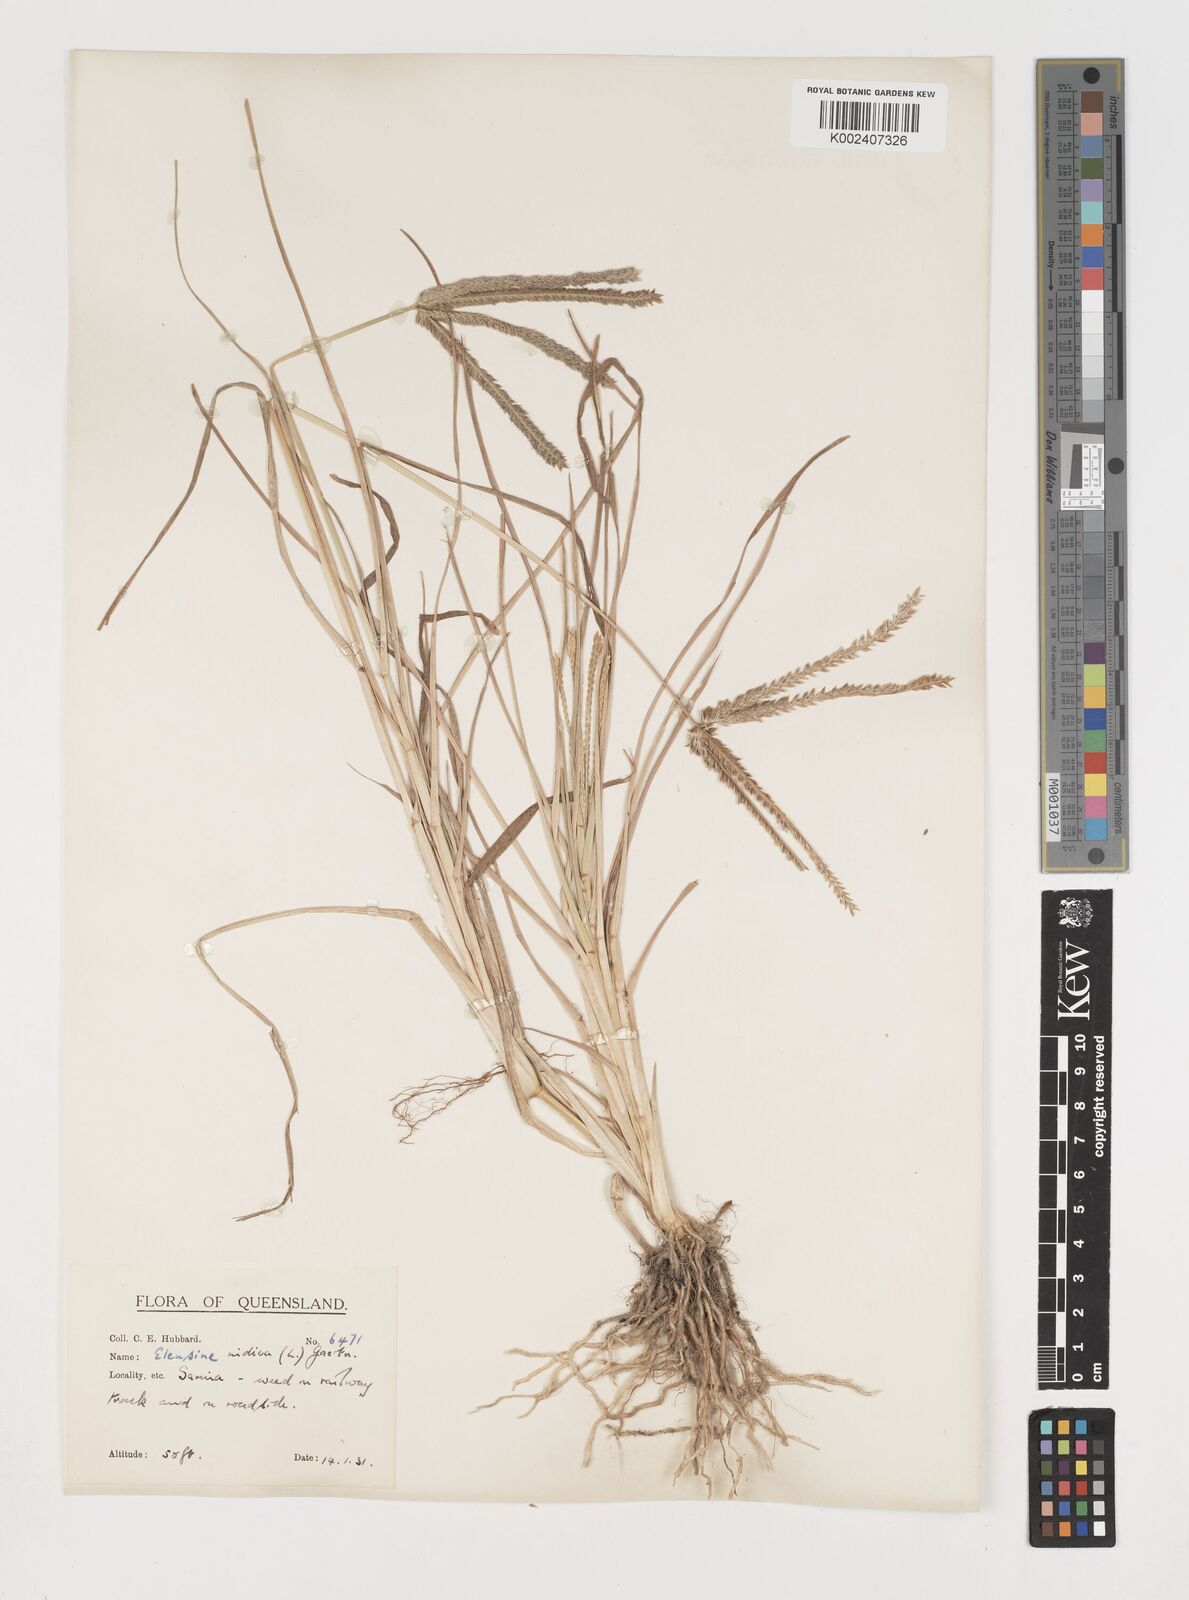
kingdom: Plantae
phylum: Tracheophyta
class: Liliopsida
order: Poales
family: Poaceae
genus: Eleusine
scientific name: Eleusine indica
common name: Yard-grass
